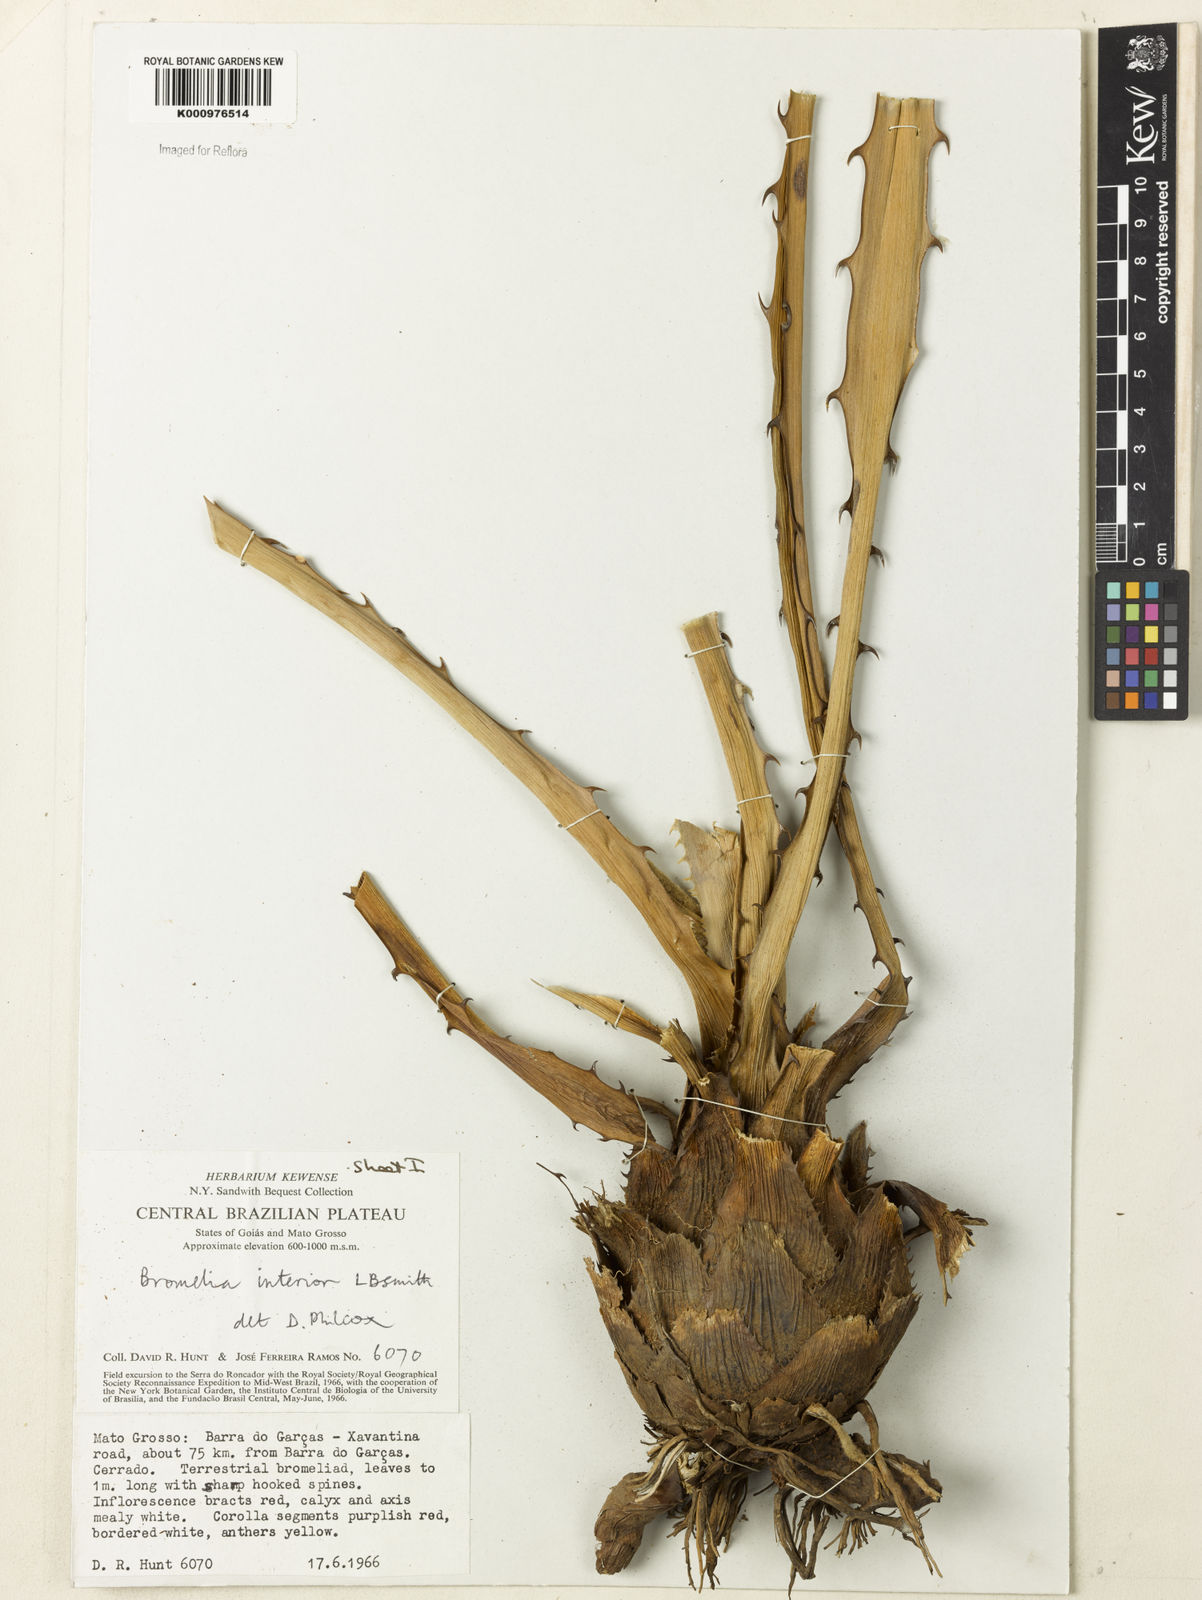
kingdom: Plantae
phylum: Tracheophyta
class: Liliopsida
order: Poales
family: Bromeliaceae
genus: Bromelia
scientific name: Bromelia interior
